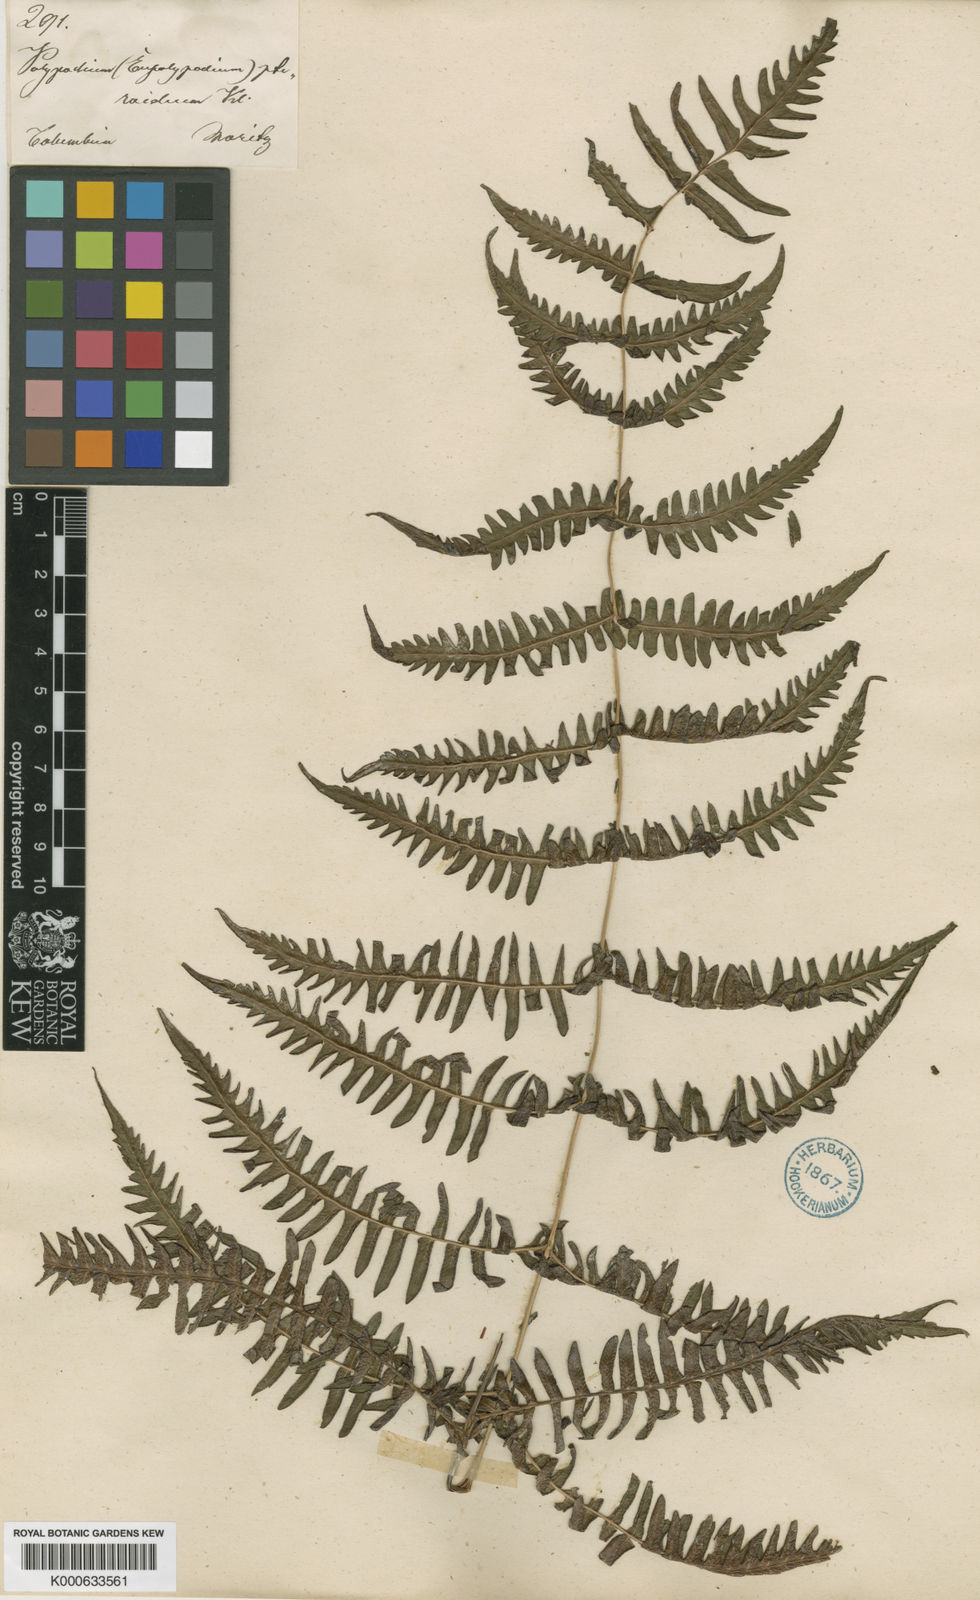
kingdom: Plantae
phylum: Tracheophyta
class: Polypodiopsida
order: Polypodiales
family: Thelypteridaceae
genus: Amauropelta
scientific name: Amauropelta
